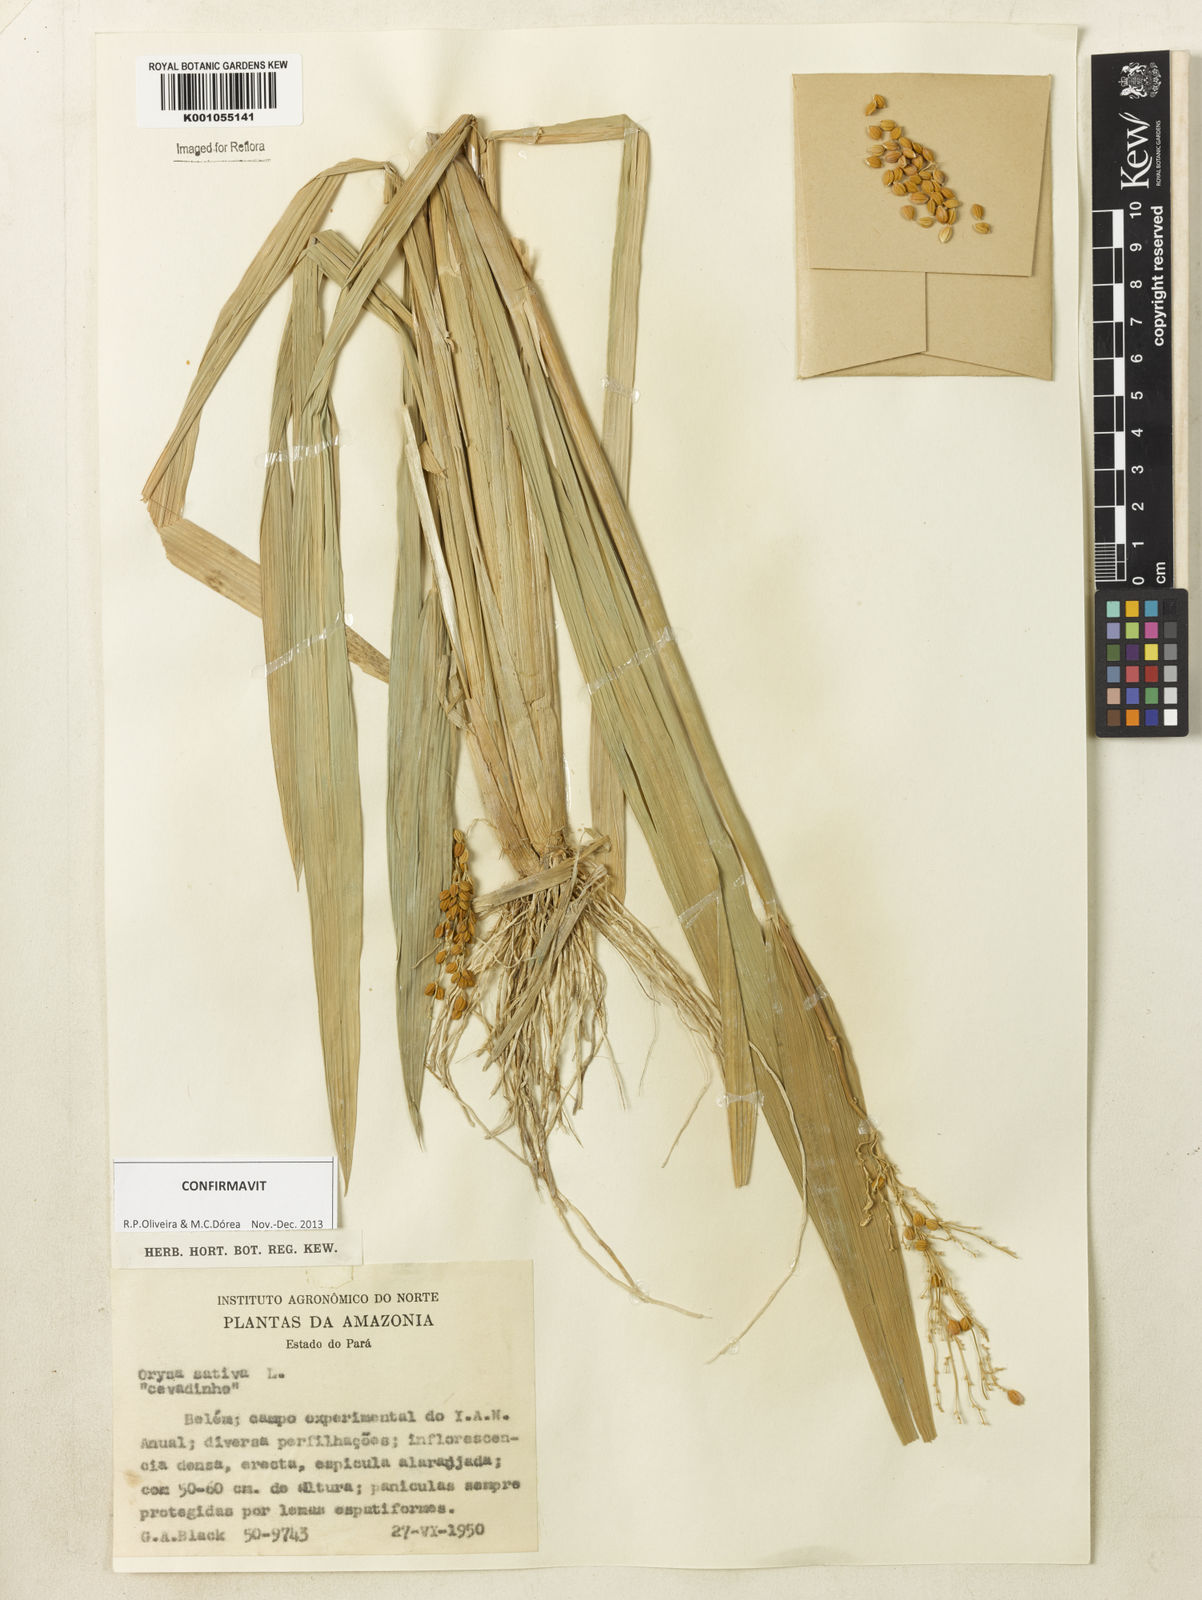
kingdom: Plantae
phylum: Tracheophyta
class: Liliopsida
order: Poales
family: Poaceae
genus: Oryza
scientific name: Oryza sativa
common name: Rice
